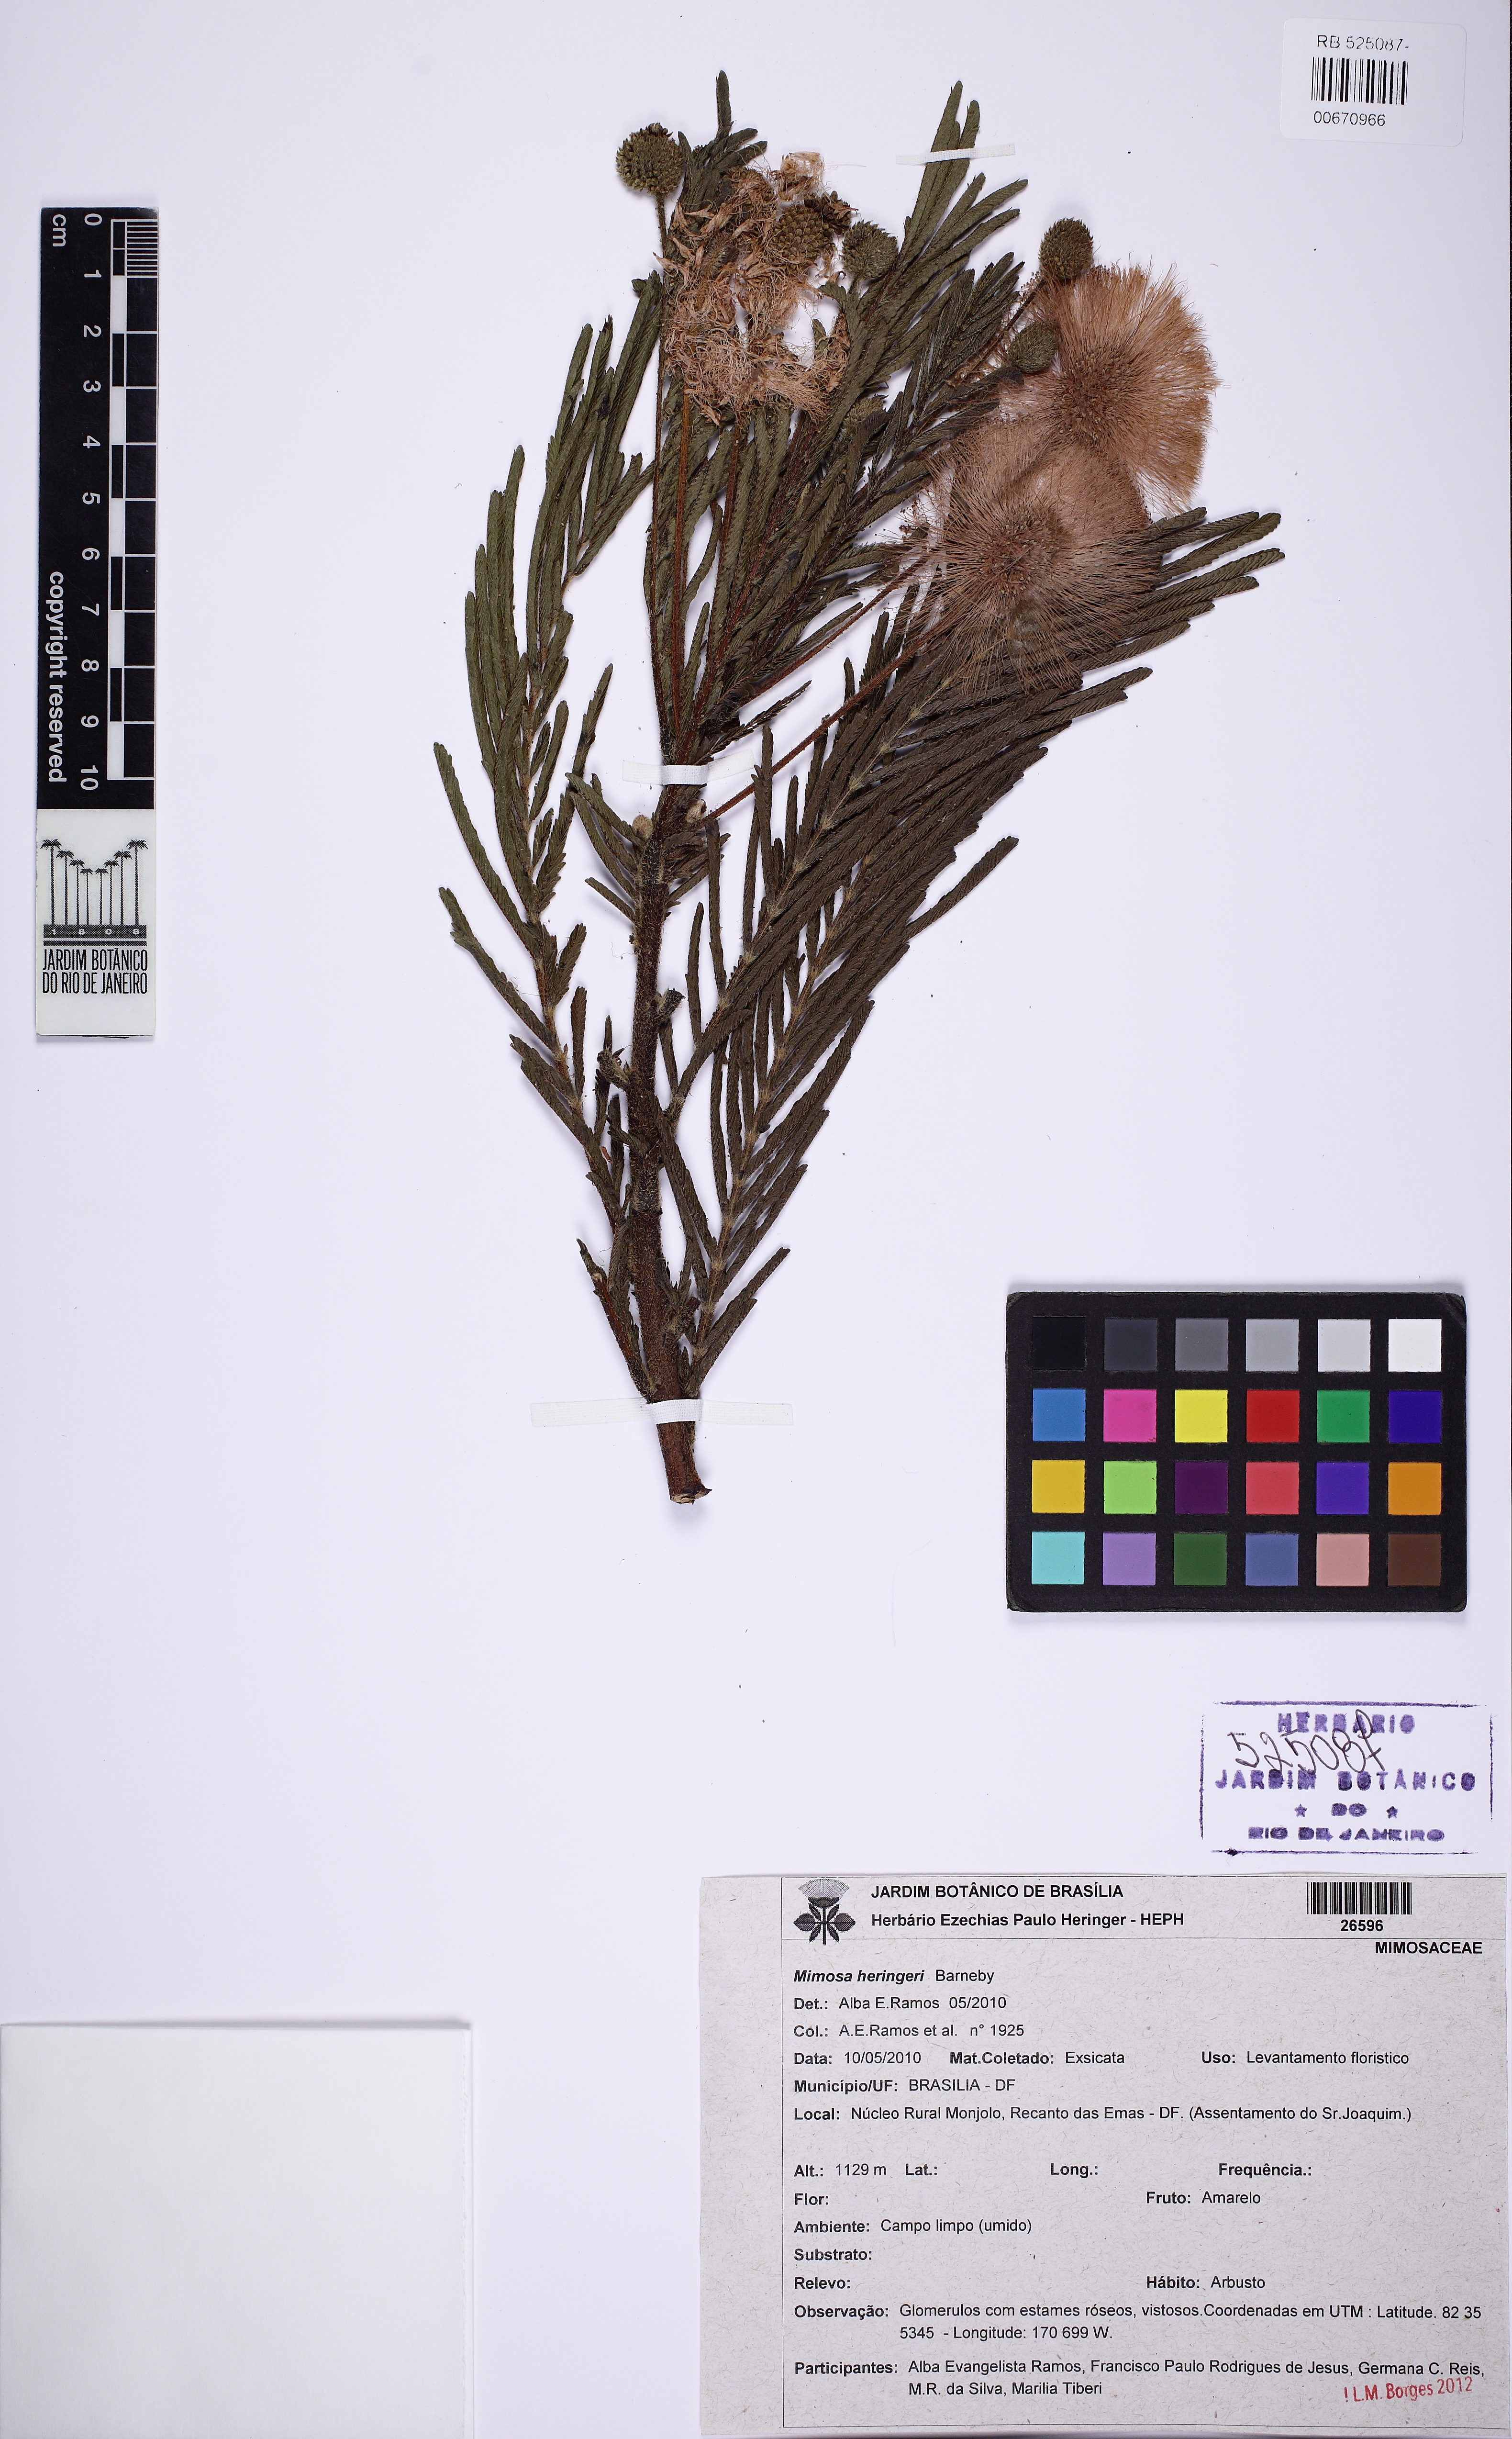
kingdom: Plantae
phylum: Tracheophyta
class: Magnoliopsida
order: Fabales
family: Fabaceae
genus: Mimosa
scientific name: Mimosa heringeri
